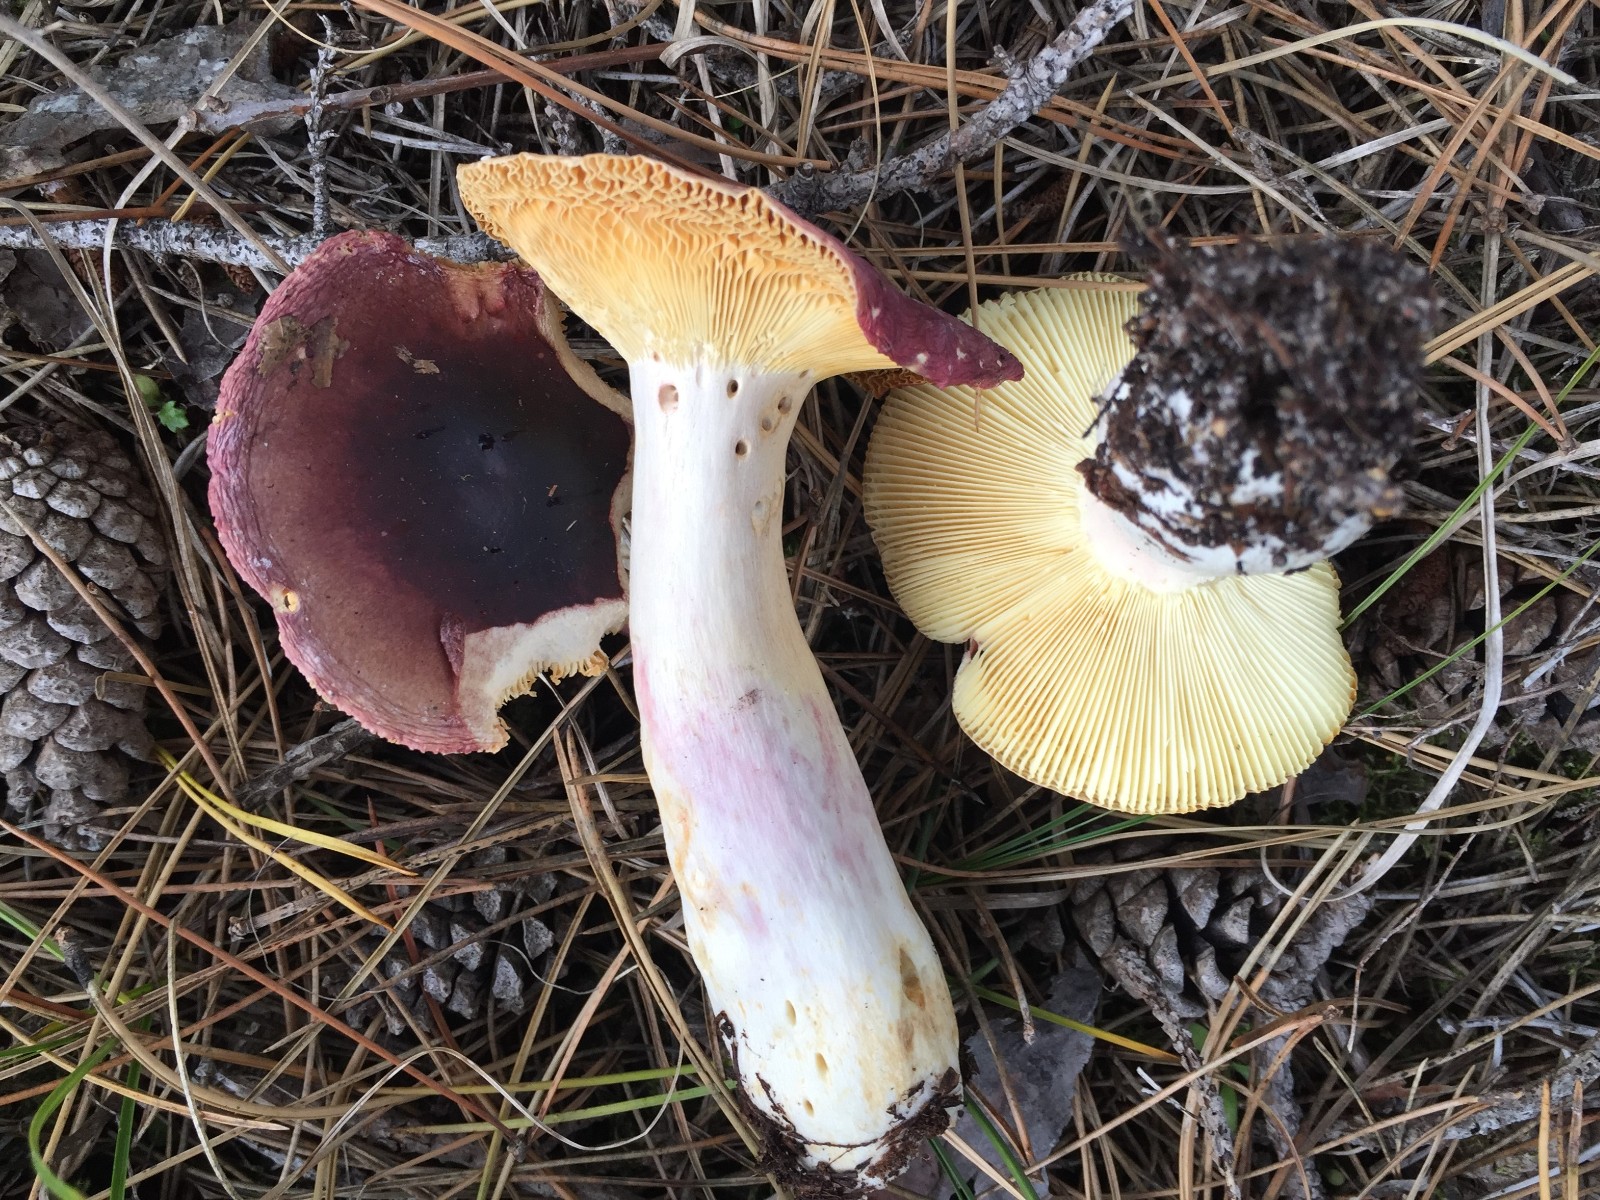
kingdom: Fungi
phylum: Basidiomycota
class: Agaricomycetes
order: Russulales
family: Russulaceae
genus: Russula
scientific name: Russula sardonia
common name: citronbladet skørhat
